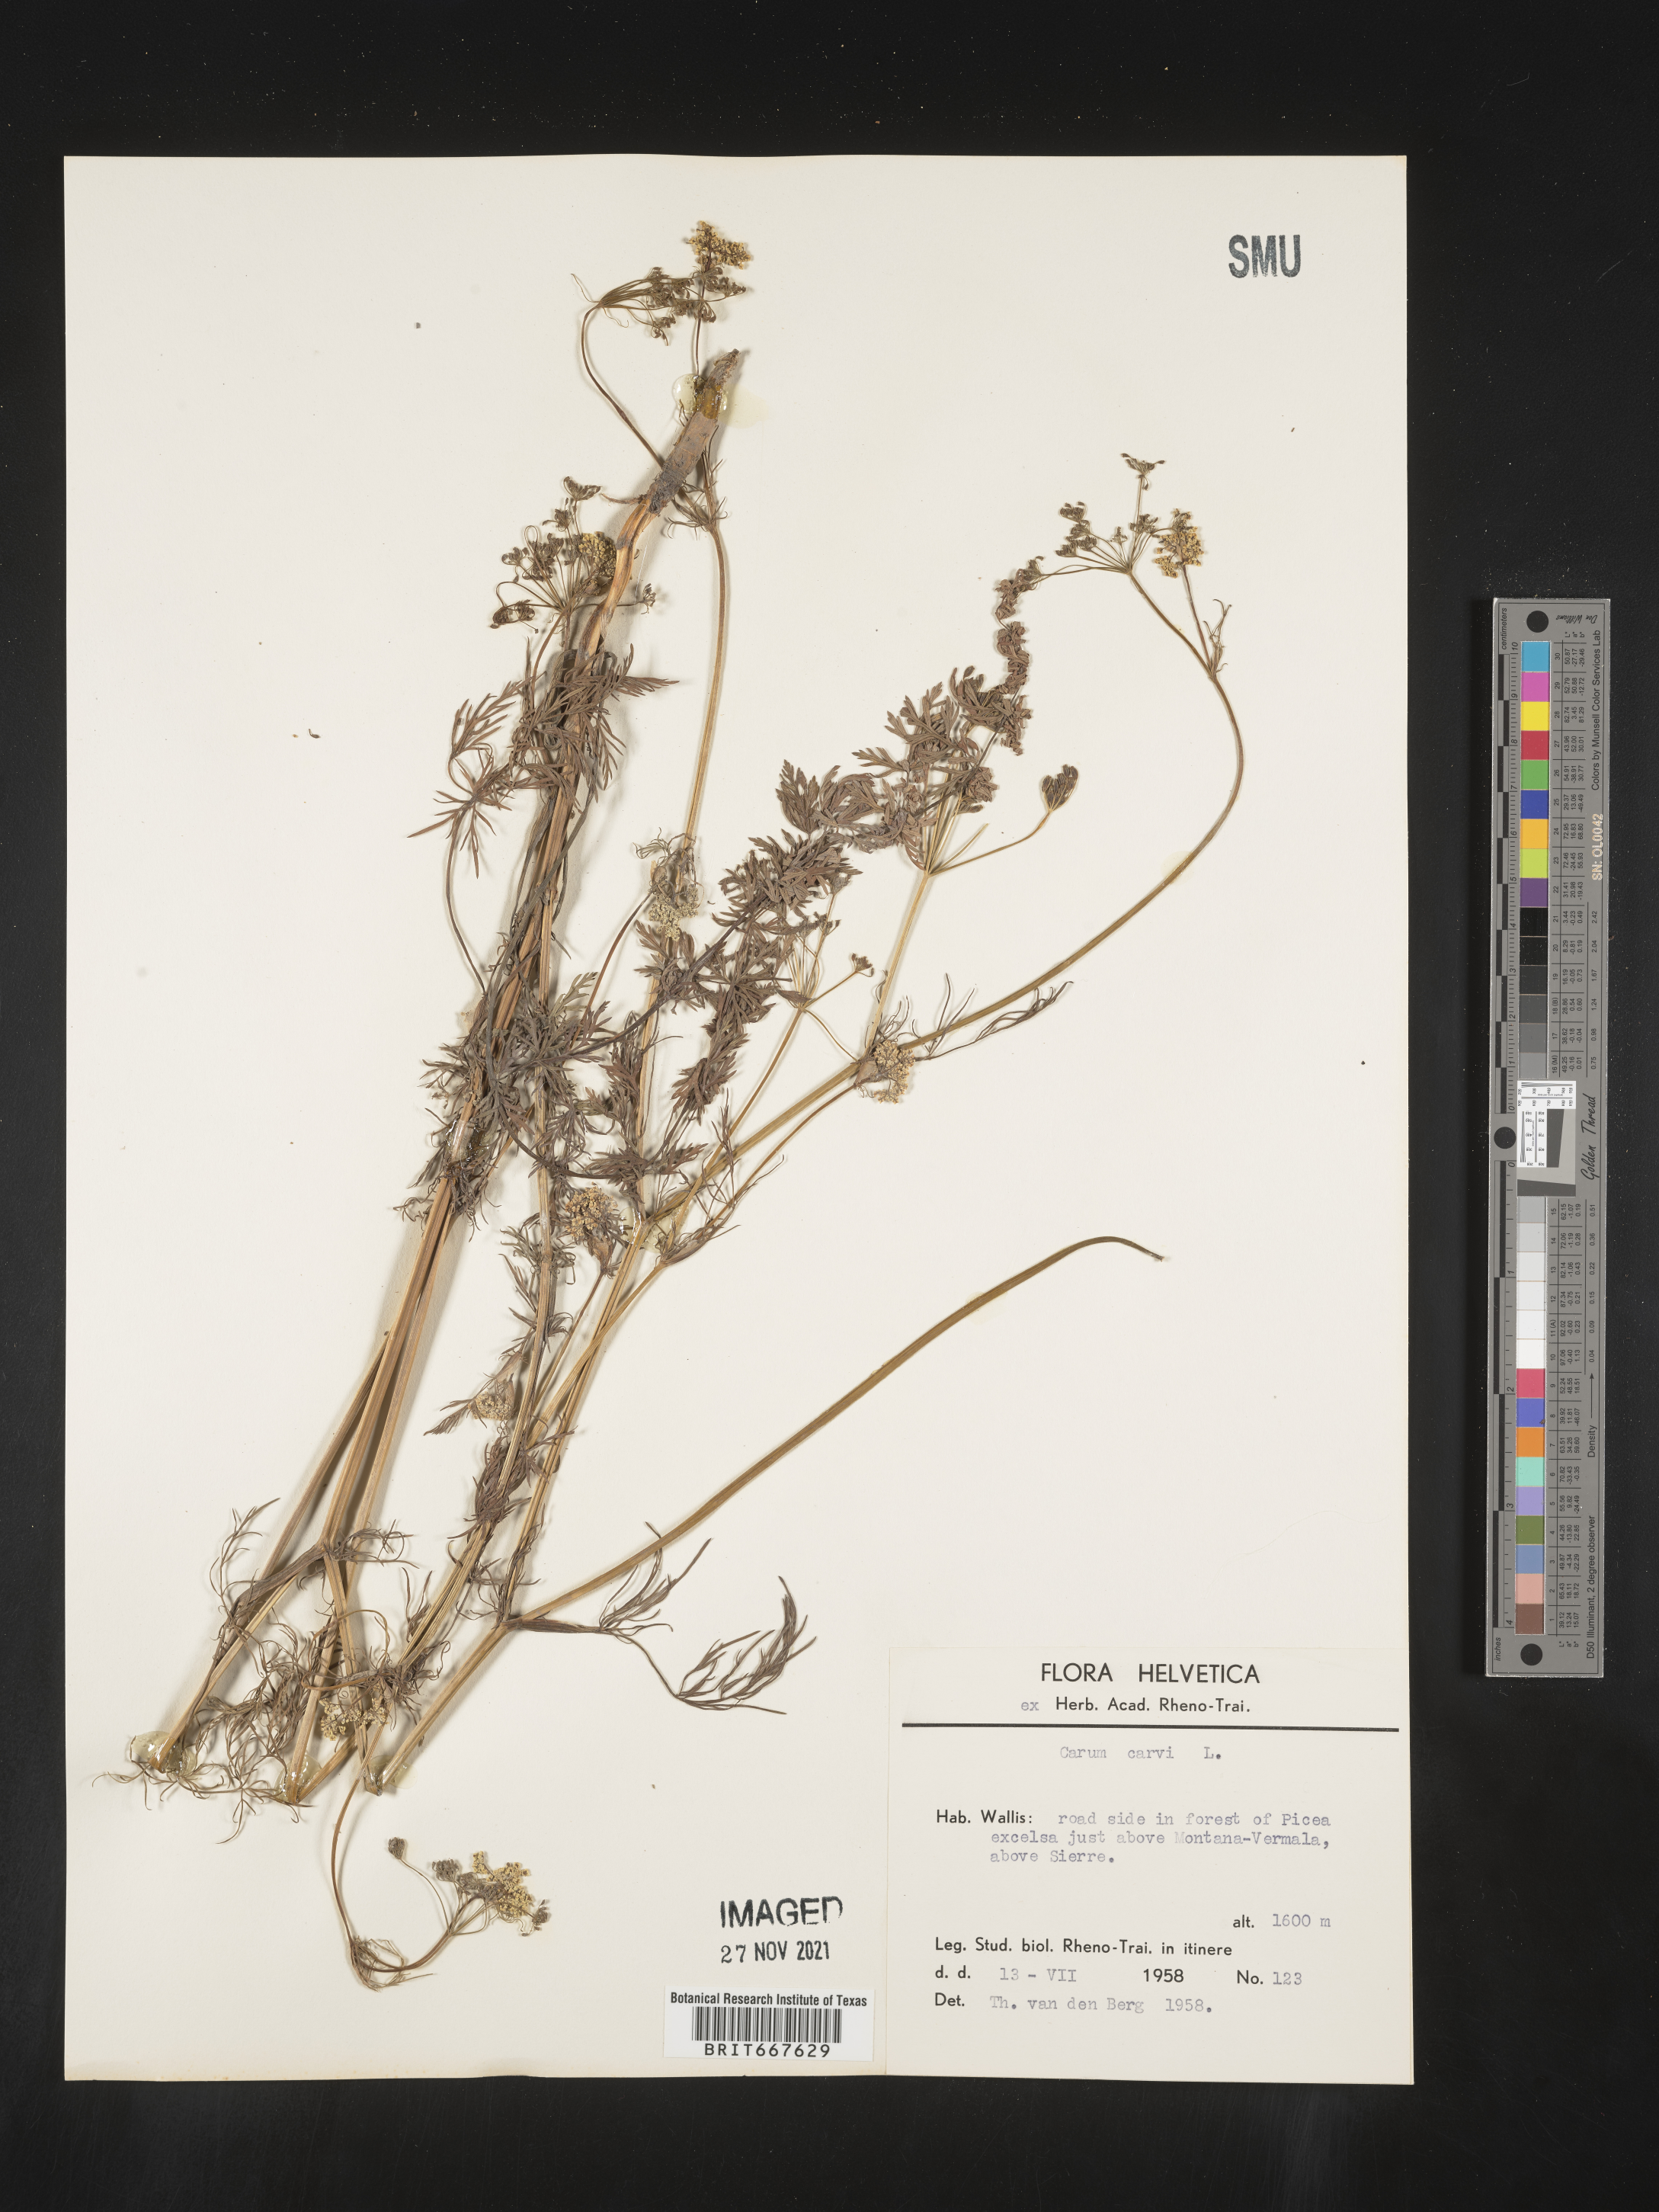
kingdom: Plantae
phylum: Tracheophyta
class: Magnoliopsida
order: Apiales
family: Apiaceae
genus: Carum
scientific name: Carum
